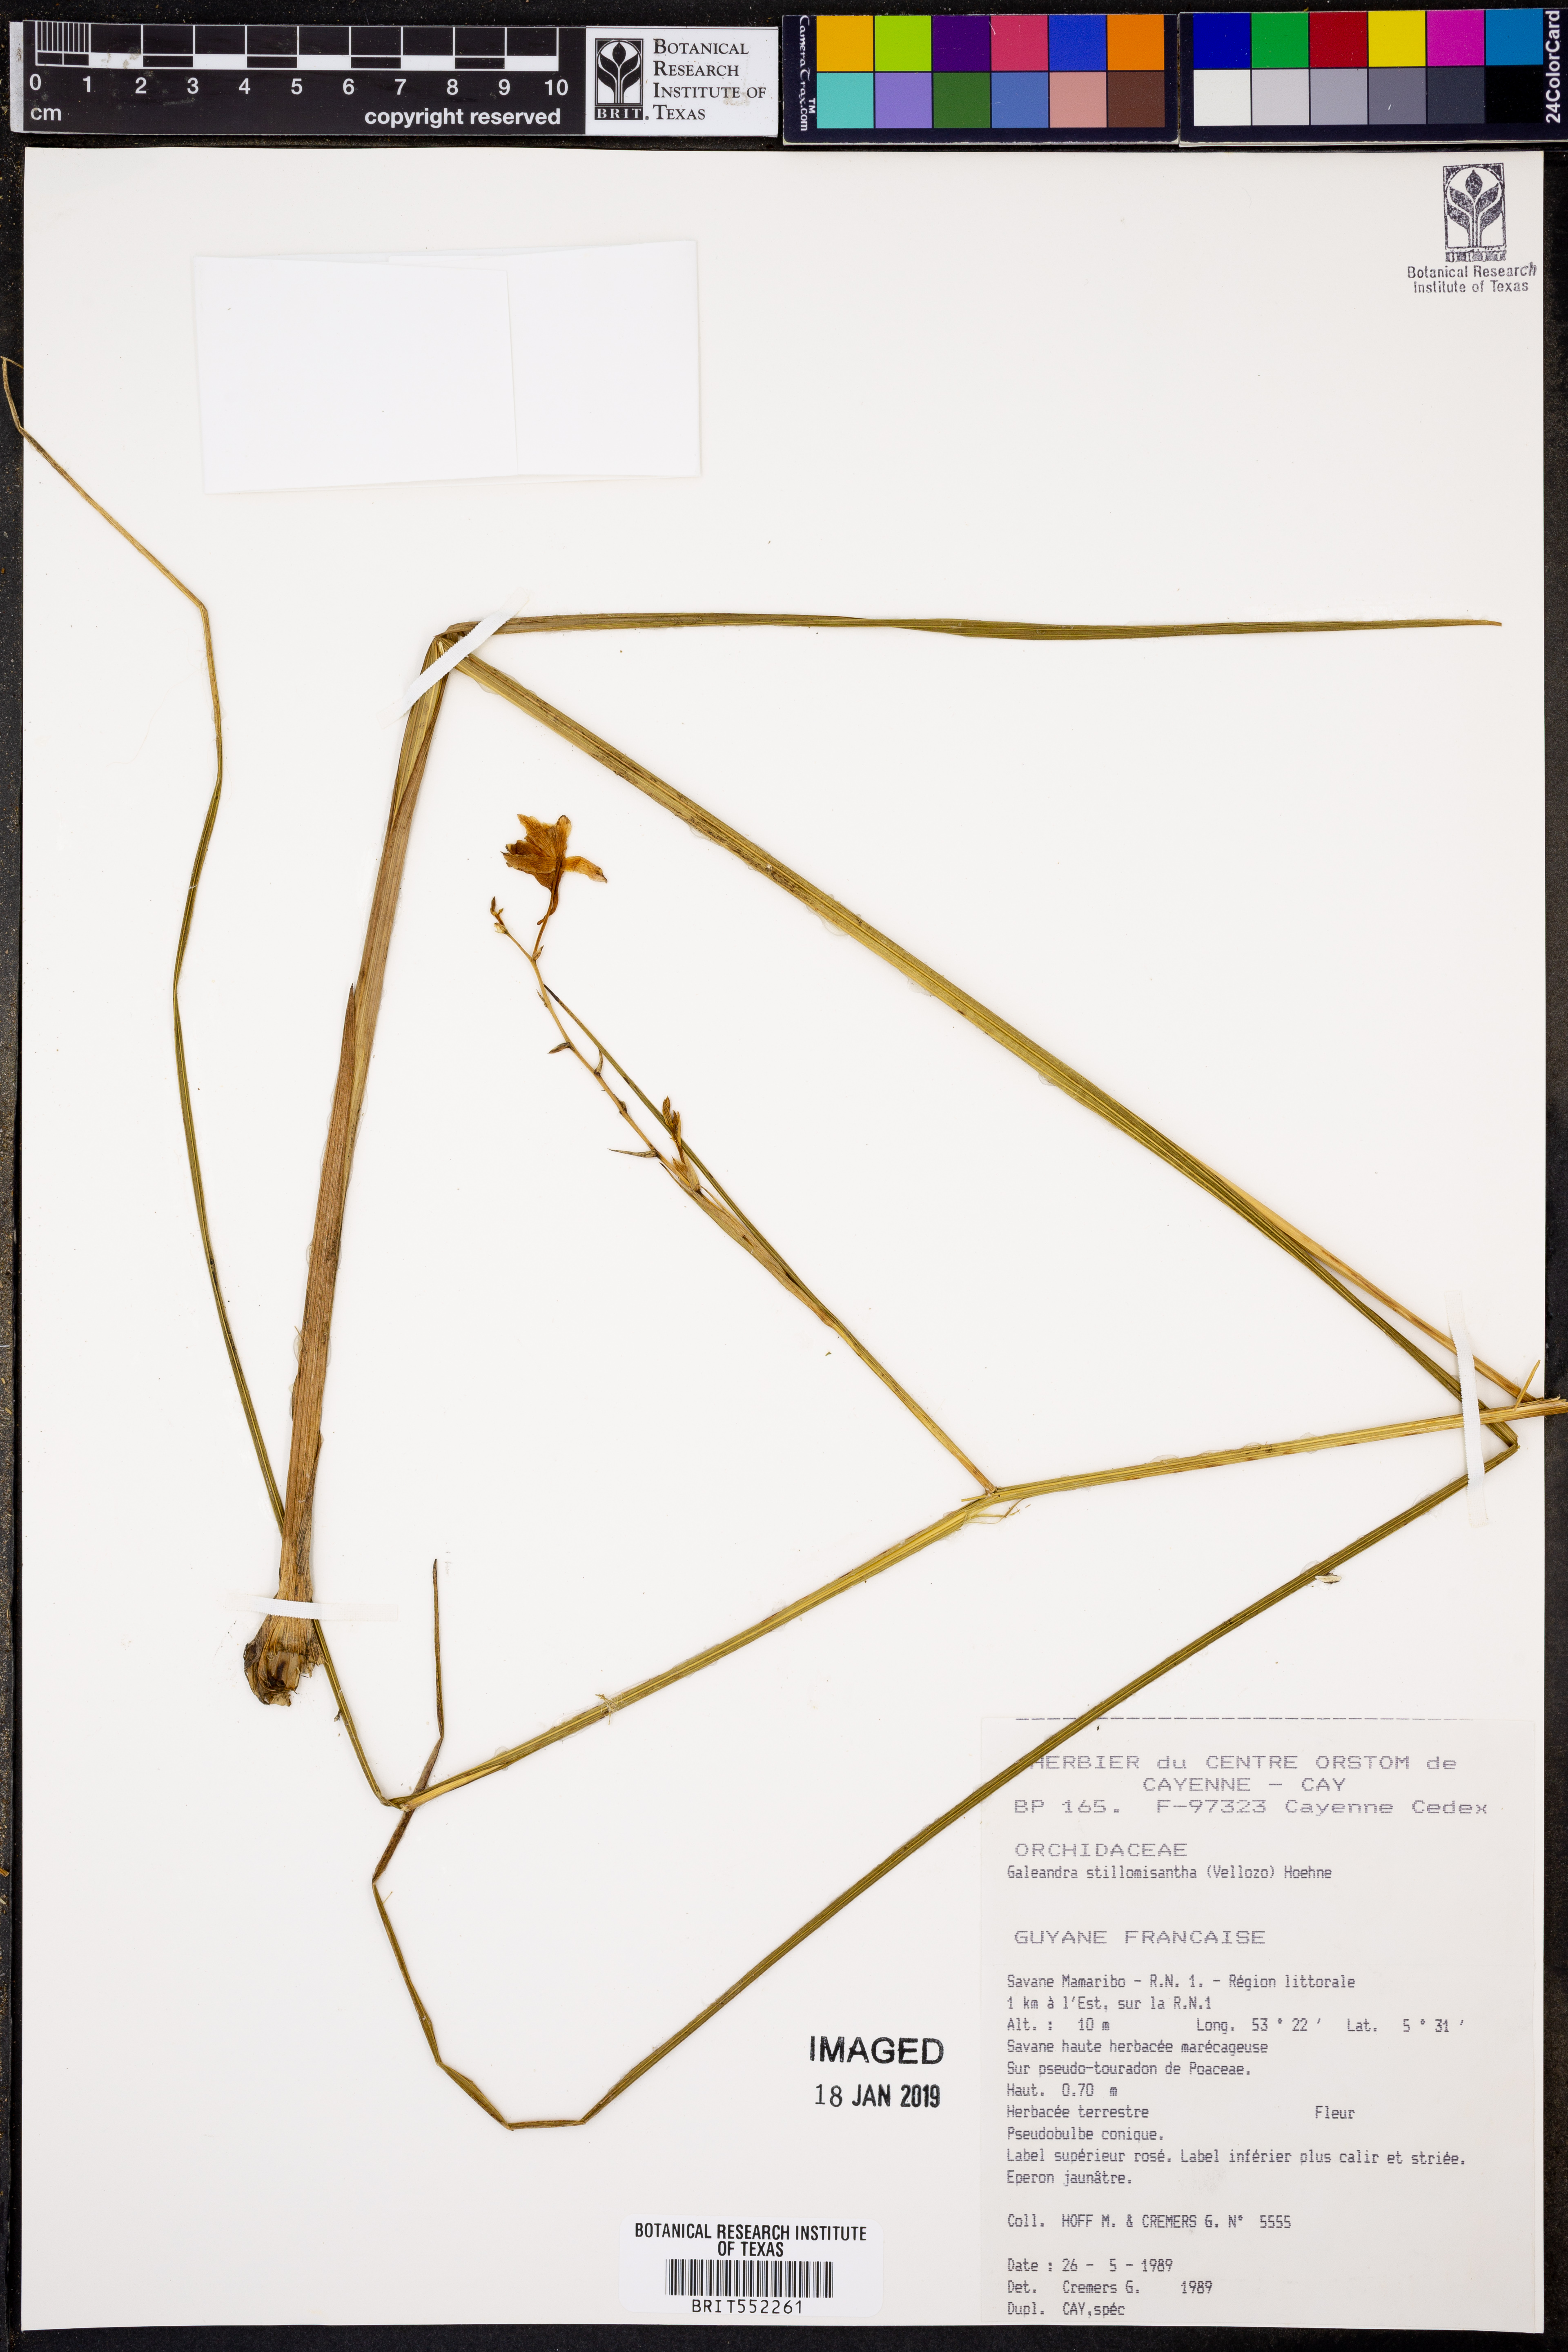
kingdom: Plantae
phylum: Tracheophyta
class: Liliopsida
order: Asparagales
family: Orchidaceae
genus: Galeandra
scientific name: Galeandra styllomisantha
